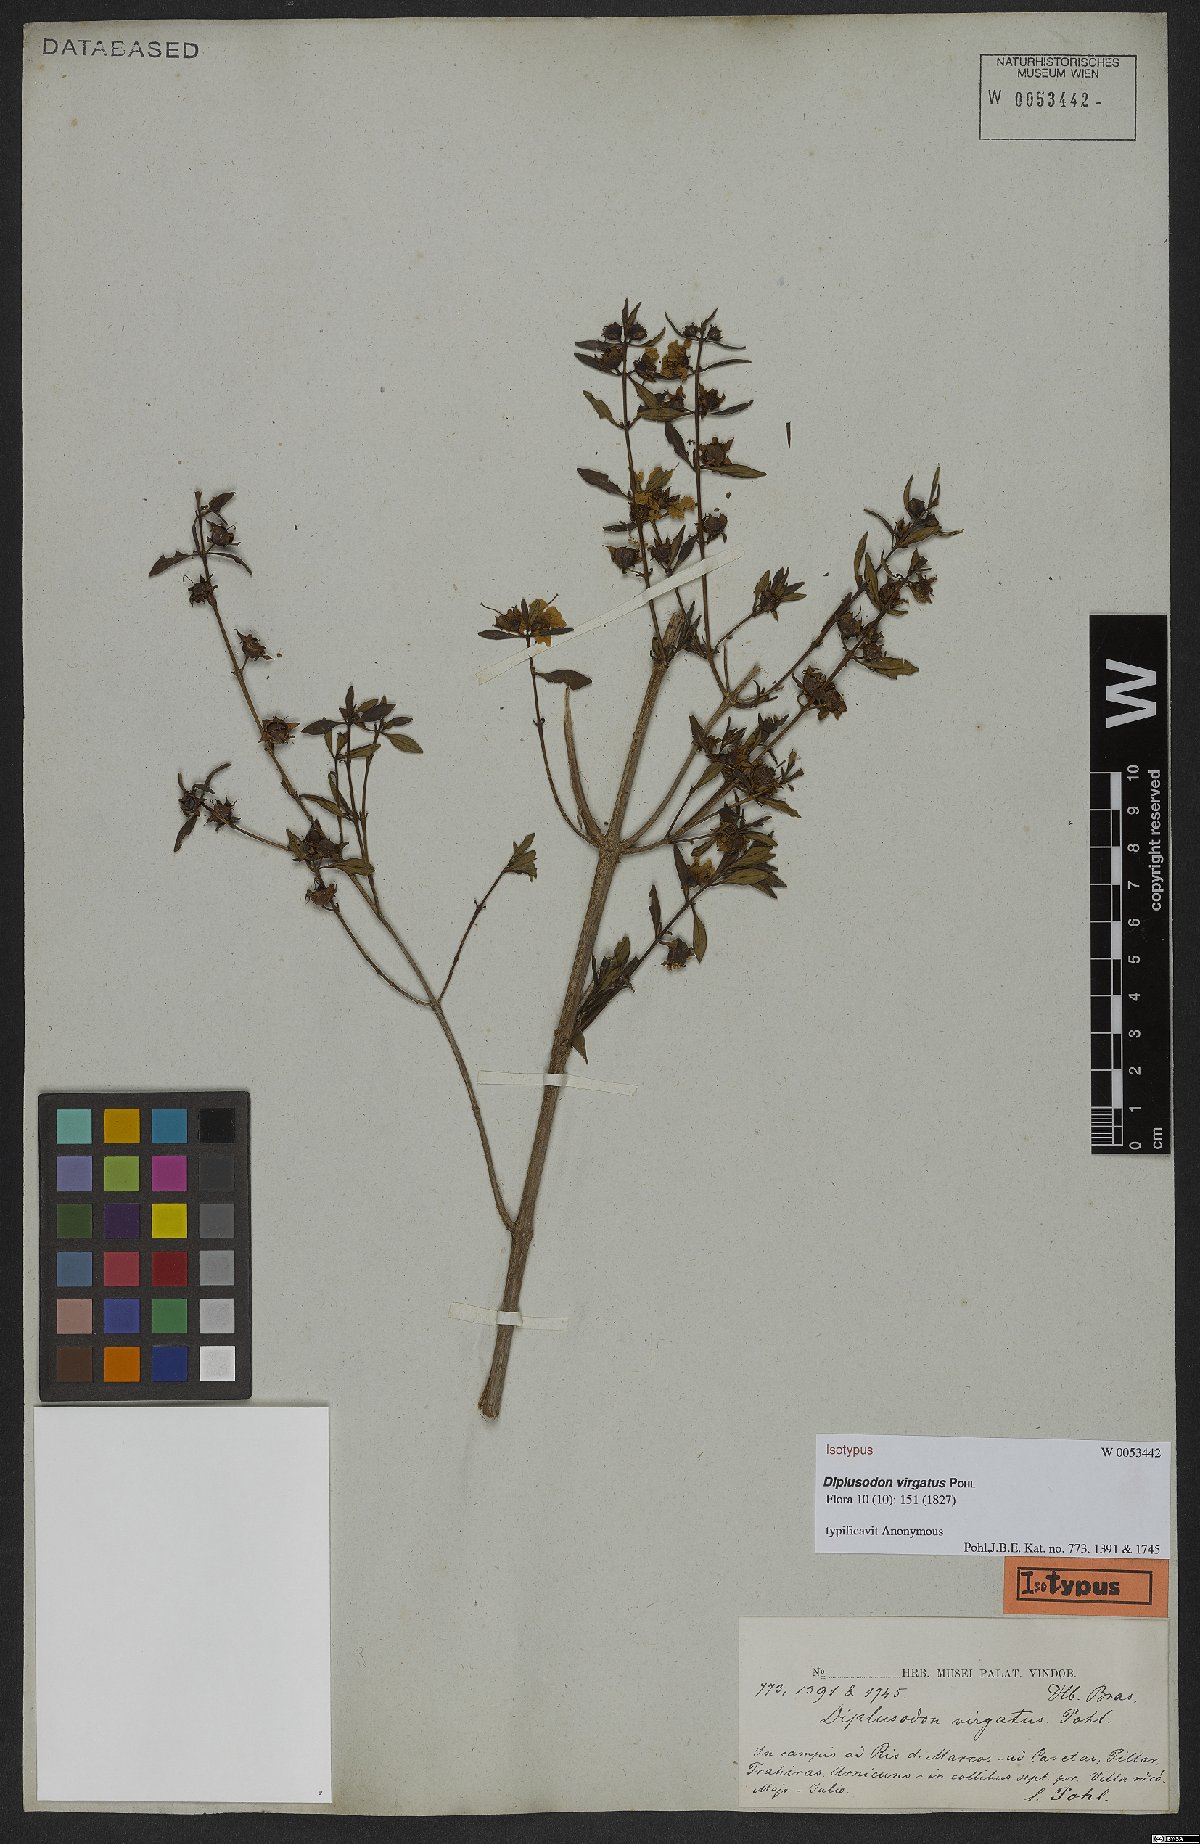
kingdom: Plantae
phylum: Tracheophyta
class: Magnoliopsida
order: Myrtales
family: Lythraceae
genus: Diplusodon
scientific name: Diplusodon virgatus
